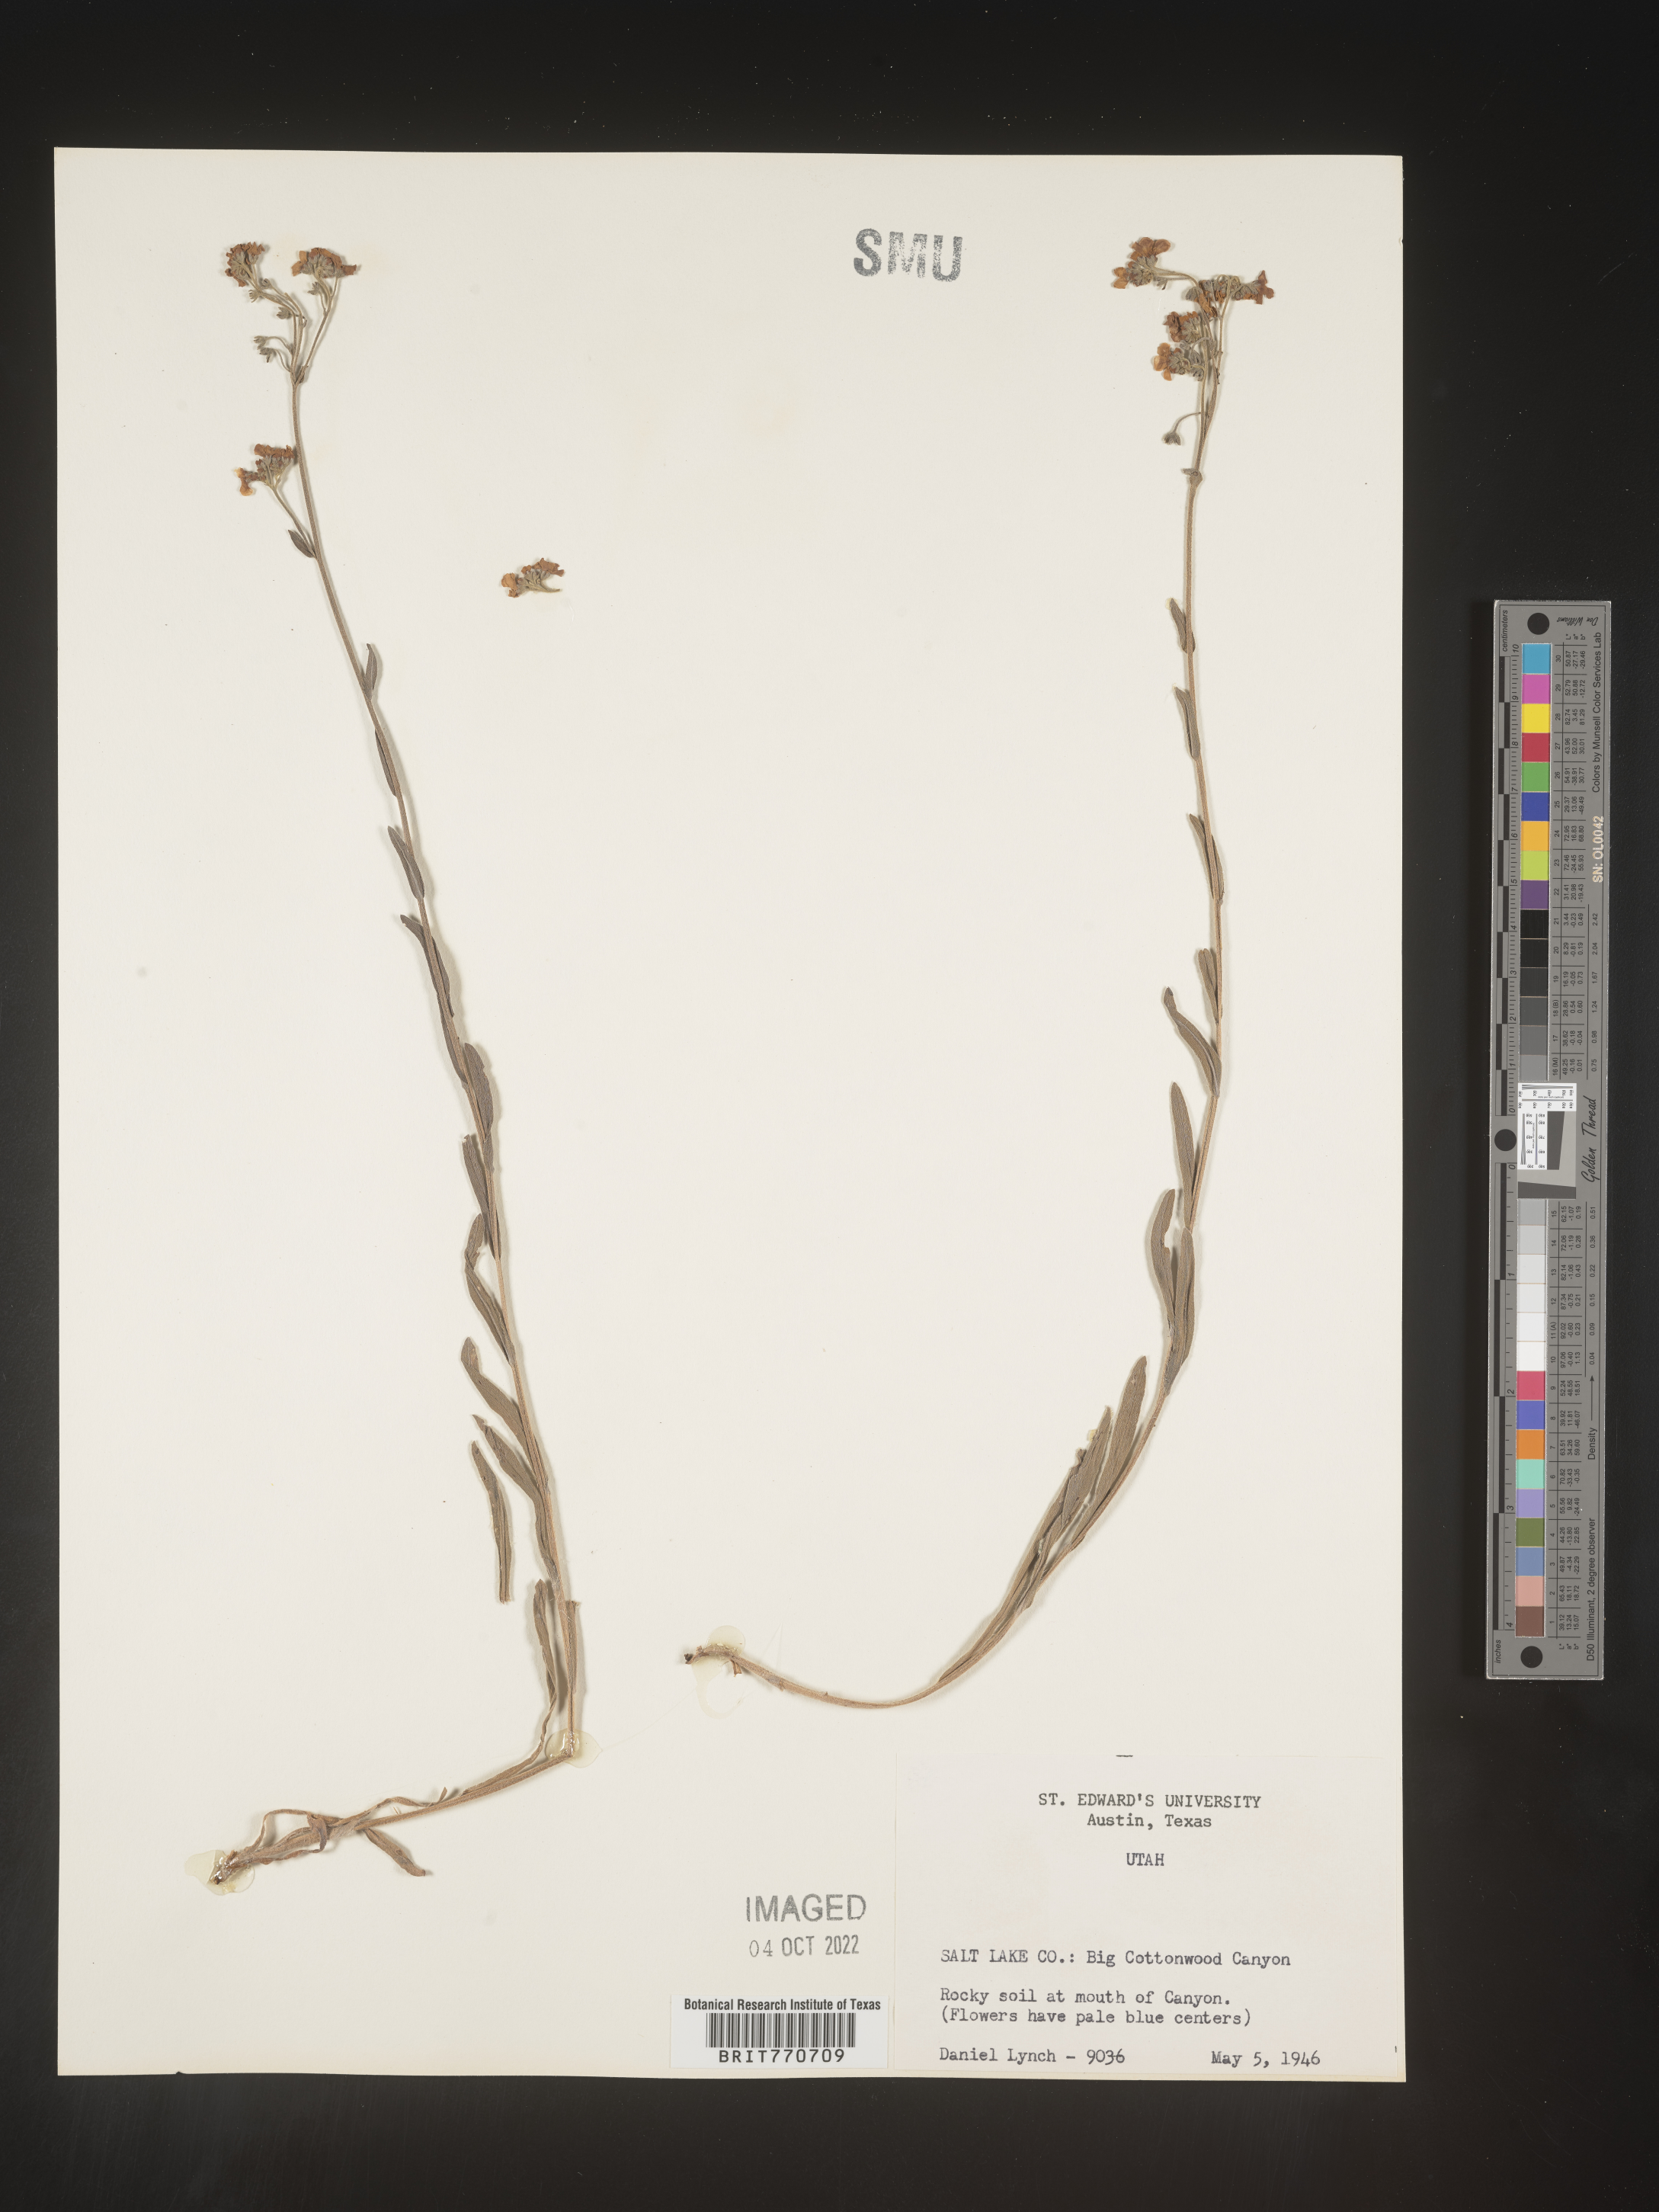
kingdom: Plantae
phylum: Tracheophyta
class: Magnoliopsida
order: Boraginales
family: Boraginaceae
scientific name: Boraginaceae
